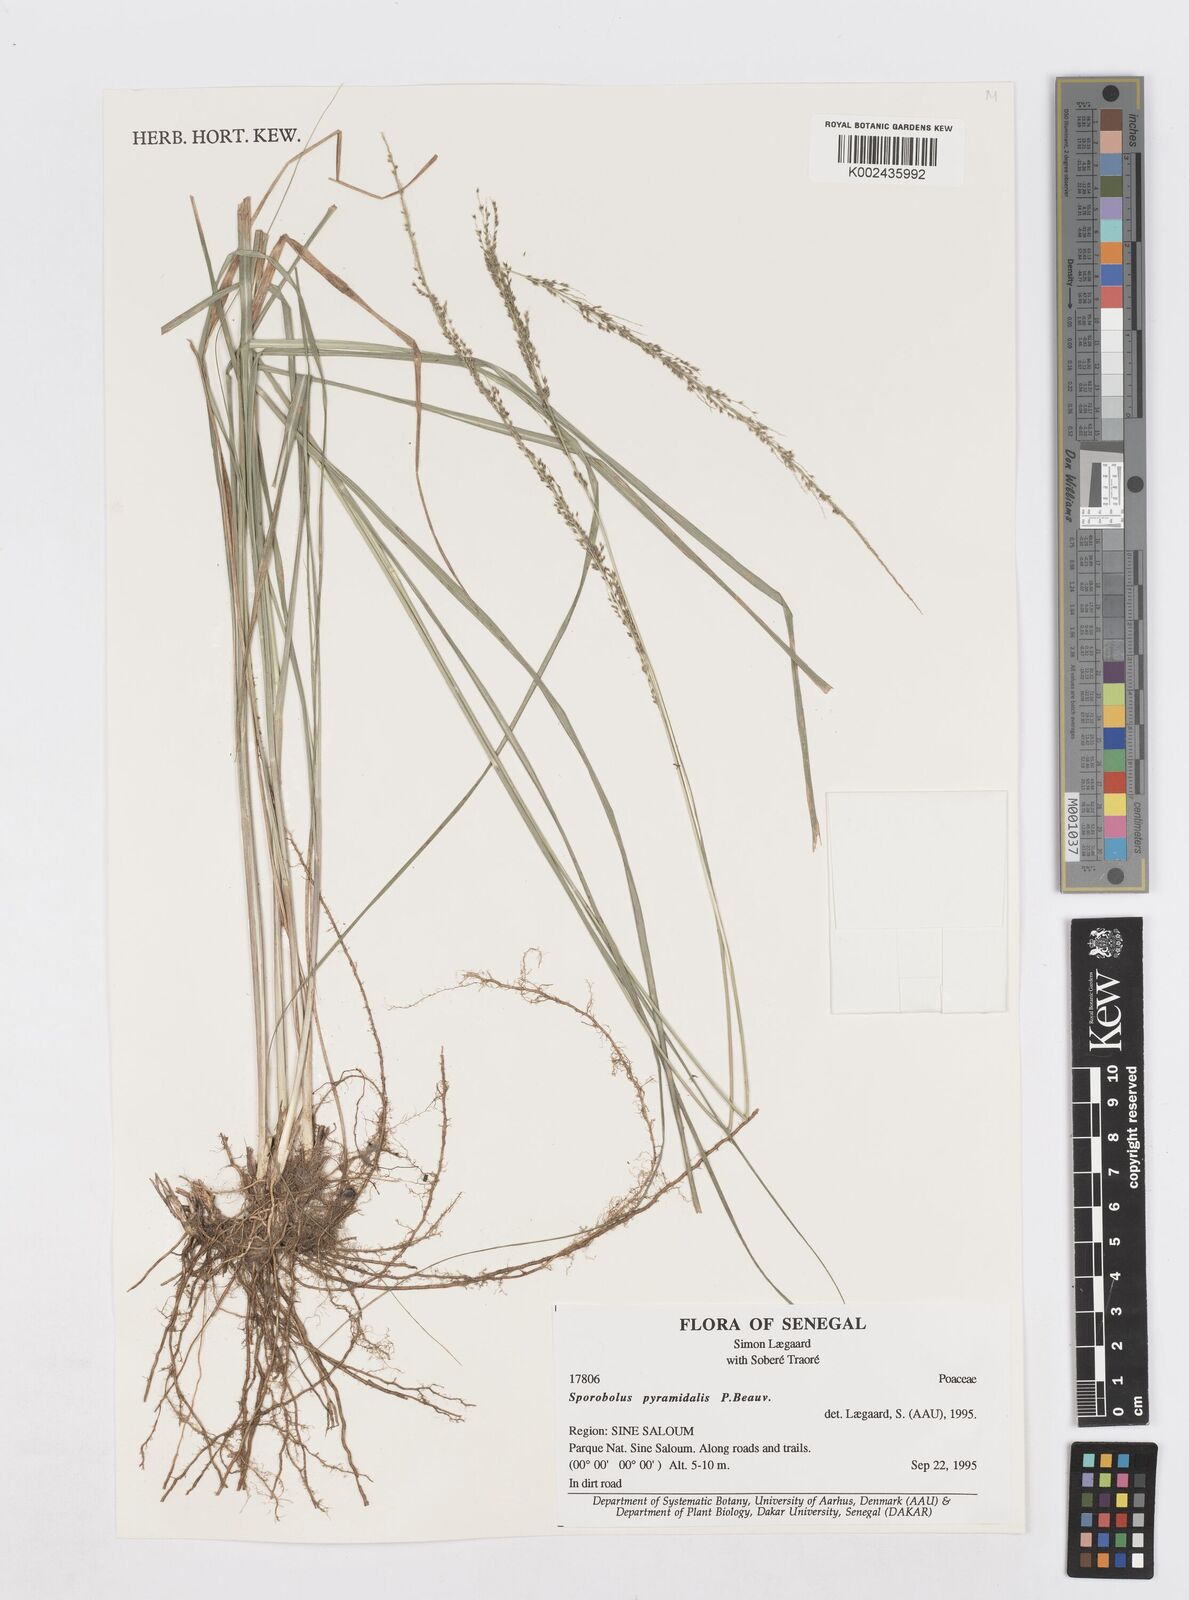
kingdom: Plantae
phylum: Tracheophyta
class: Liliopsida
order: Poales
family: Poaceae
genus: Sporobolus
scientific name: Sporobolus pyramidalis
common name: West indian dropseed
